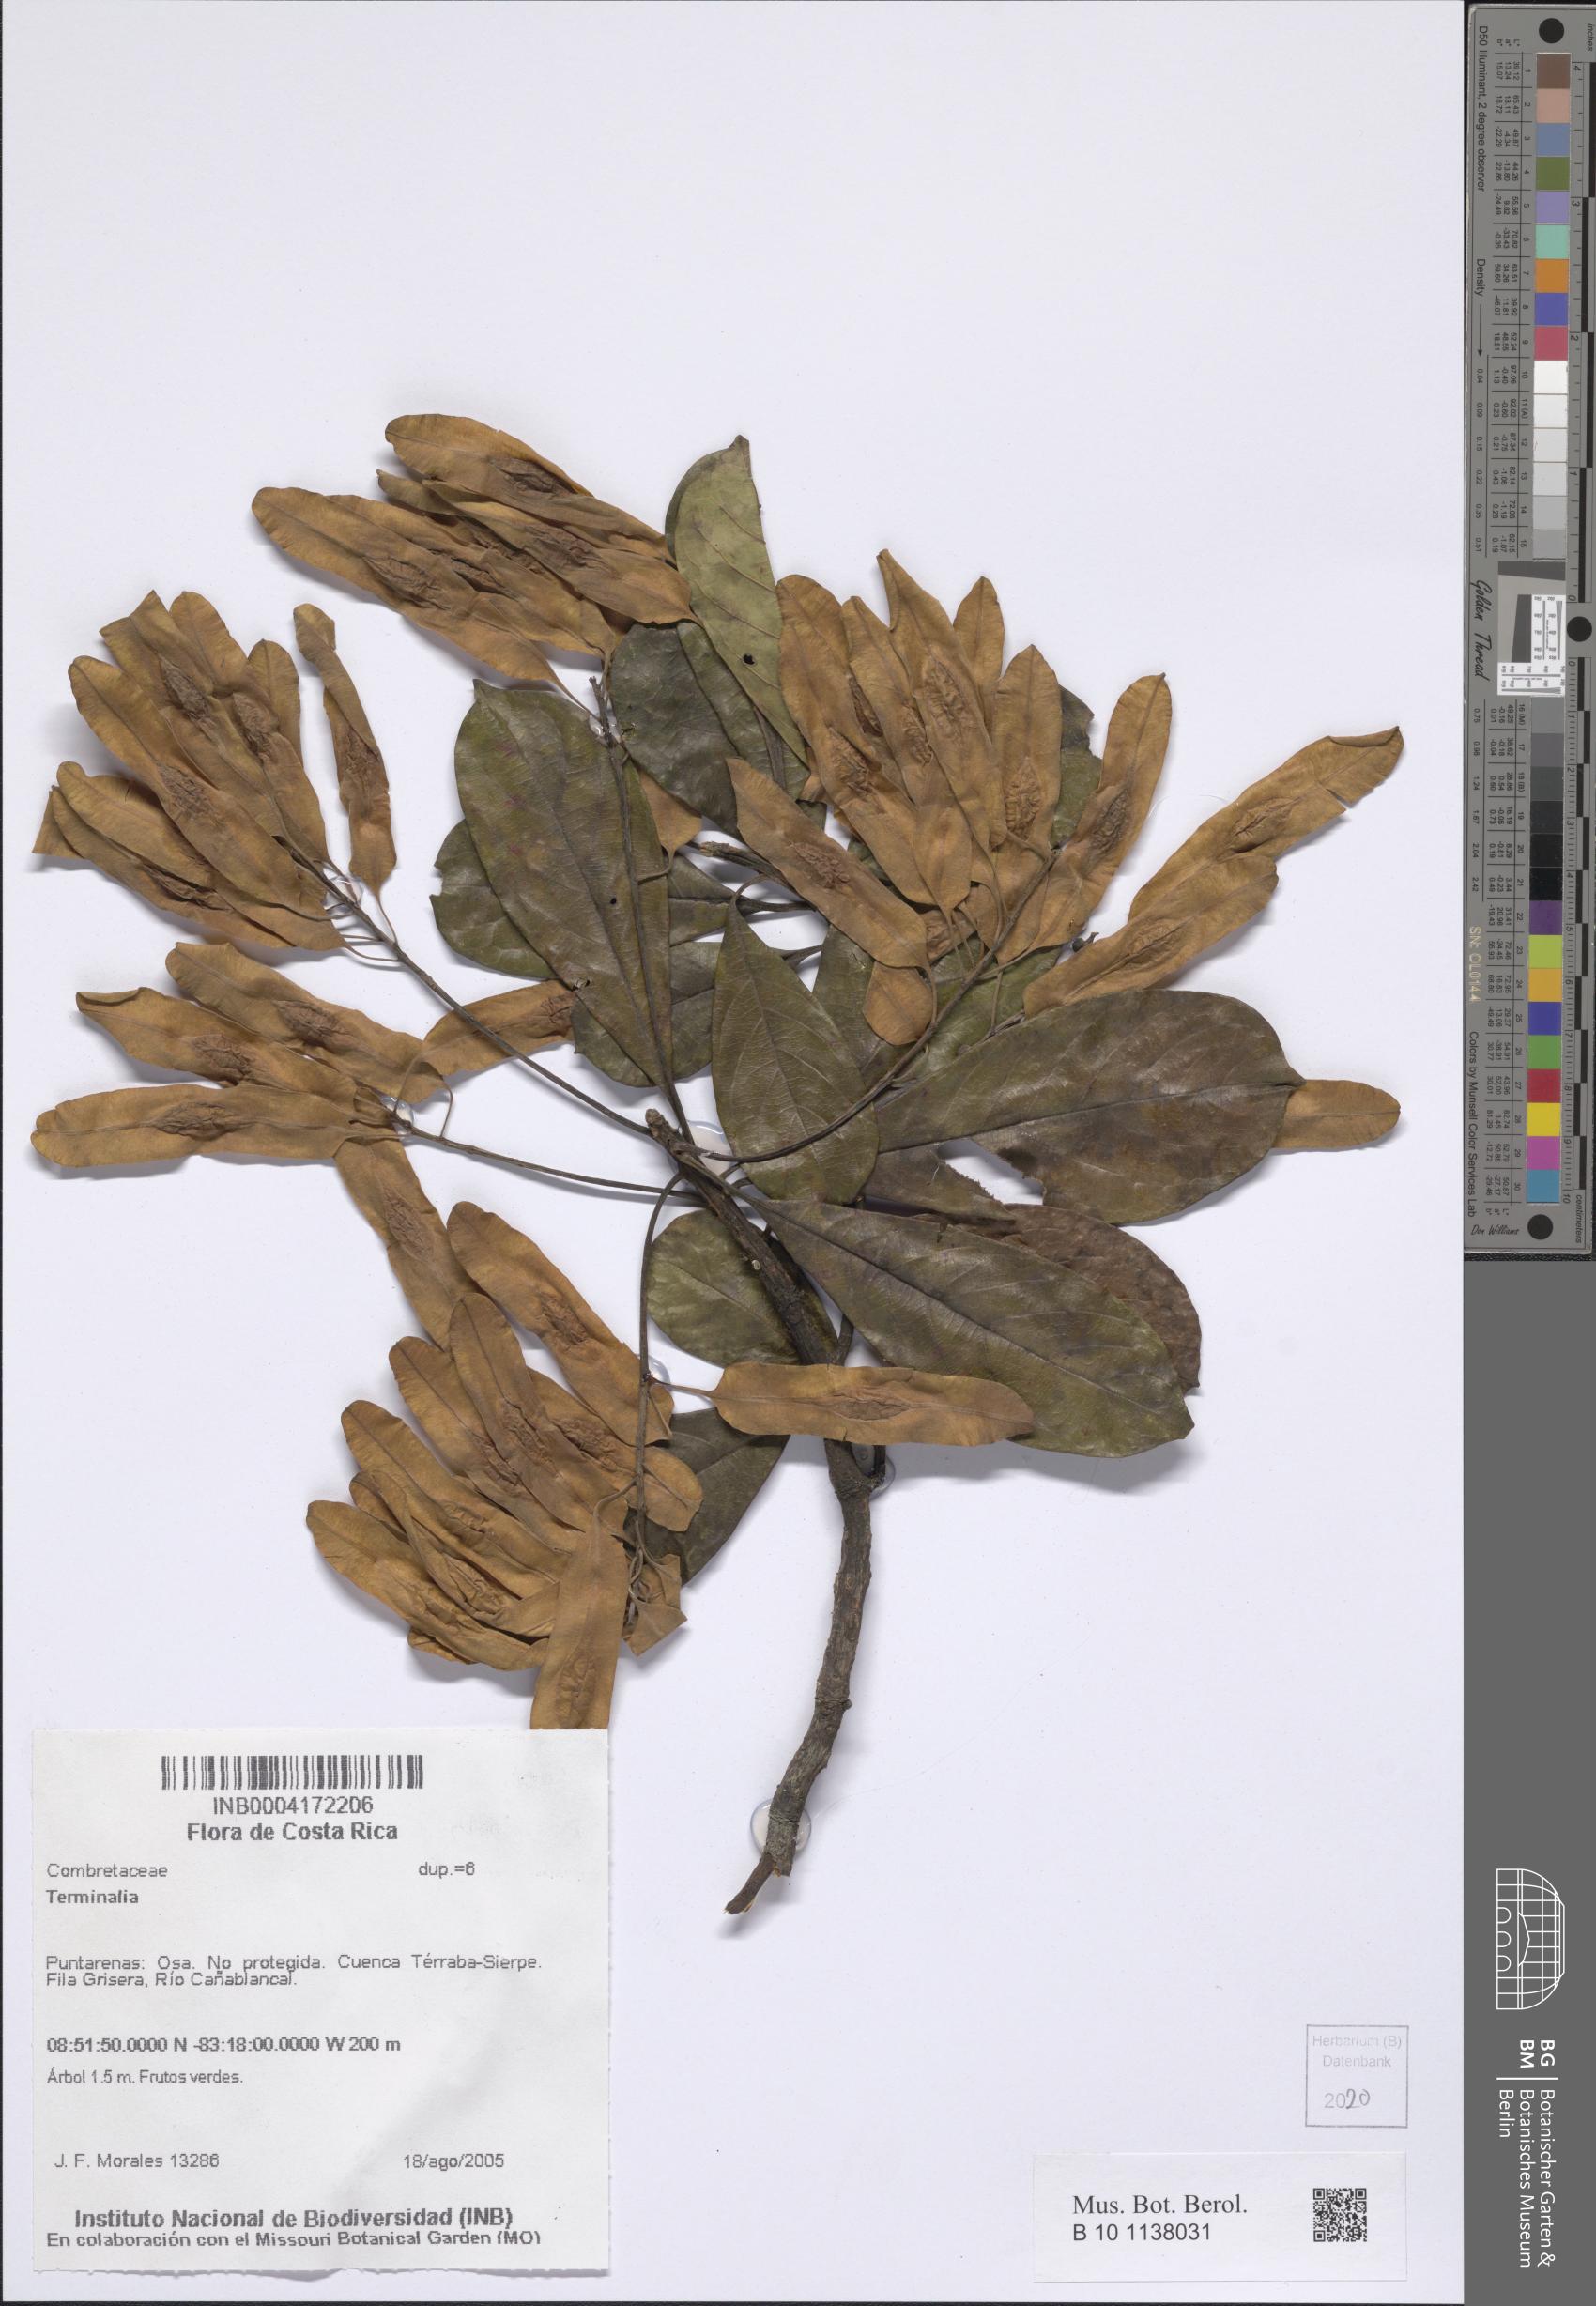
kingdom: Plantae
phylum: Tracheophyta
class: Magnoliopsida
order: Myrtales
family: Combretaceae
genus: Terminalia
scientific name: Terminalia
